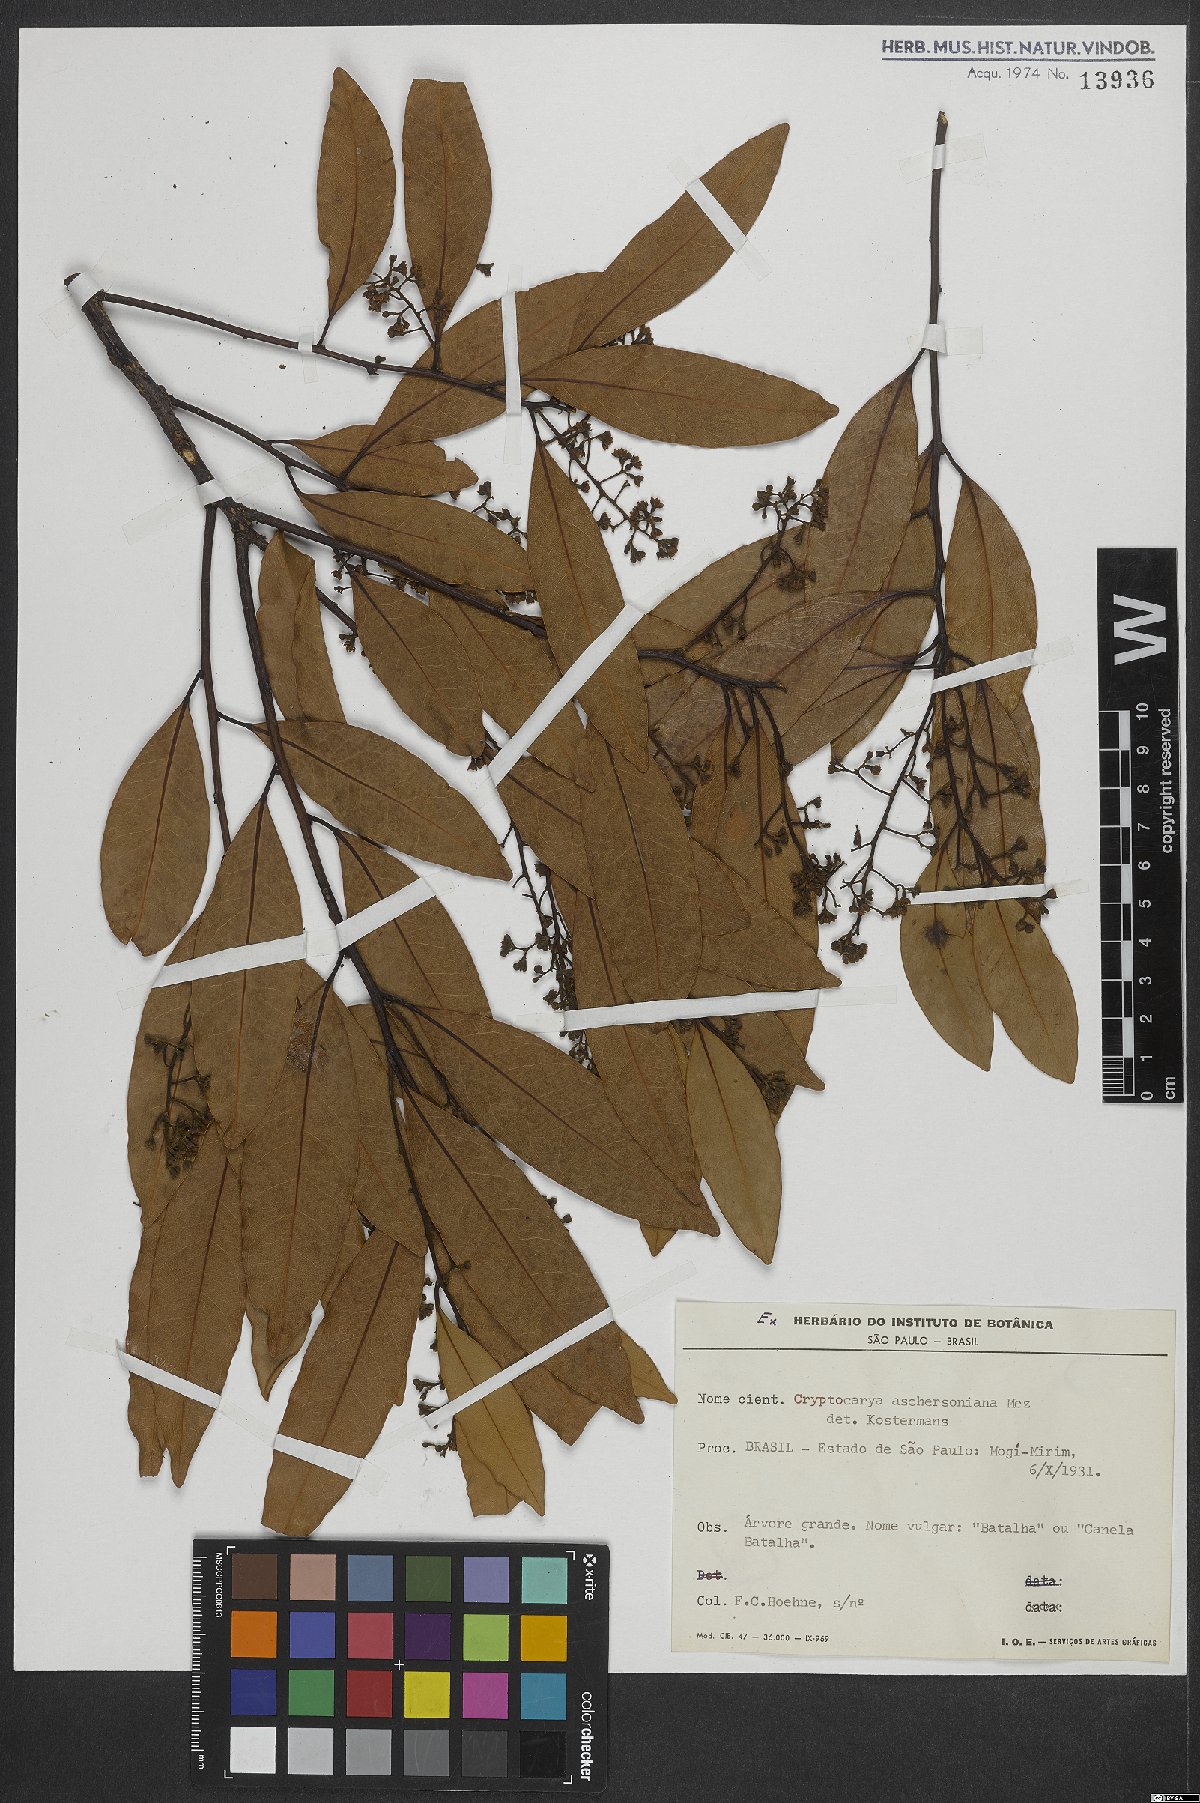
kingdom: Plantae
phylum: Tracheophyta
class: Magnoliopsida
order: Laurales
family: Lauraceae
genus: Cryptocarya
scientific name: Cryptocarya aschersoniana
